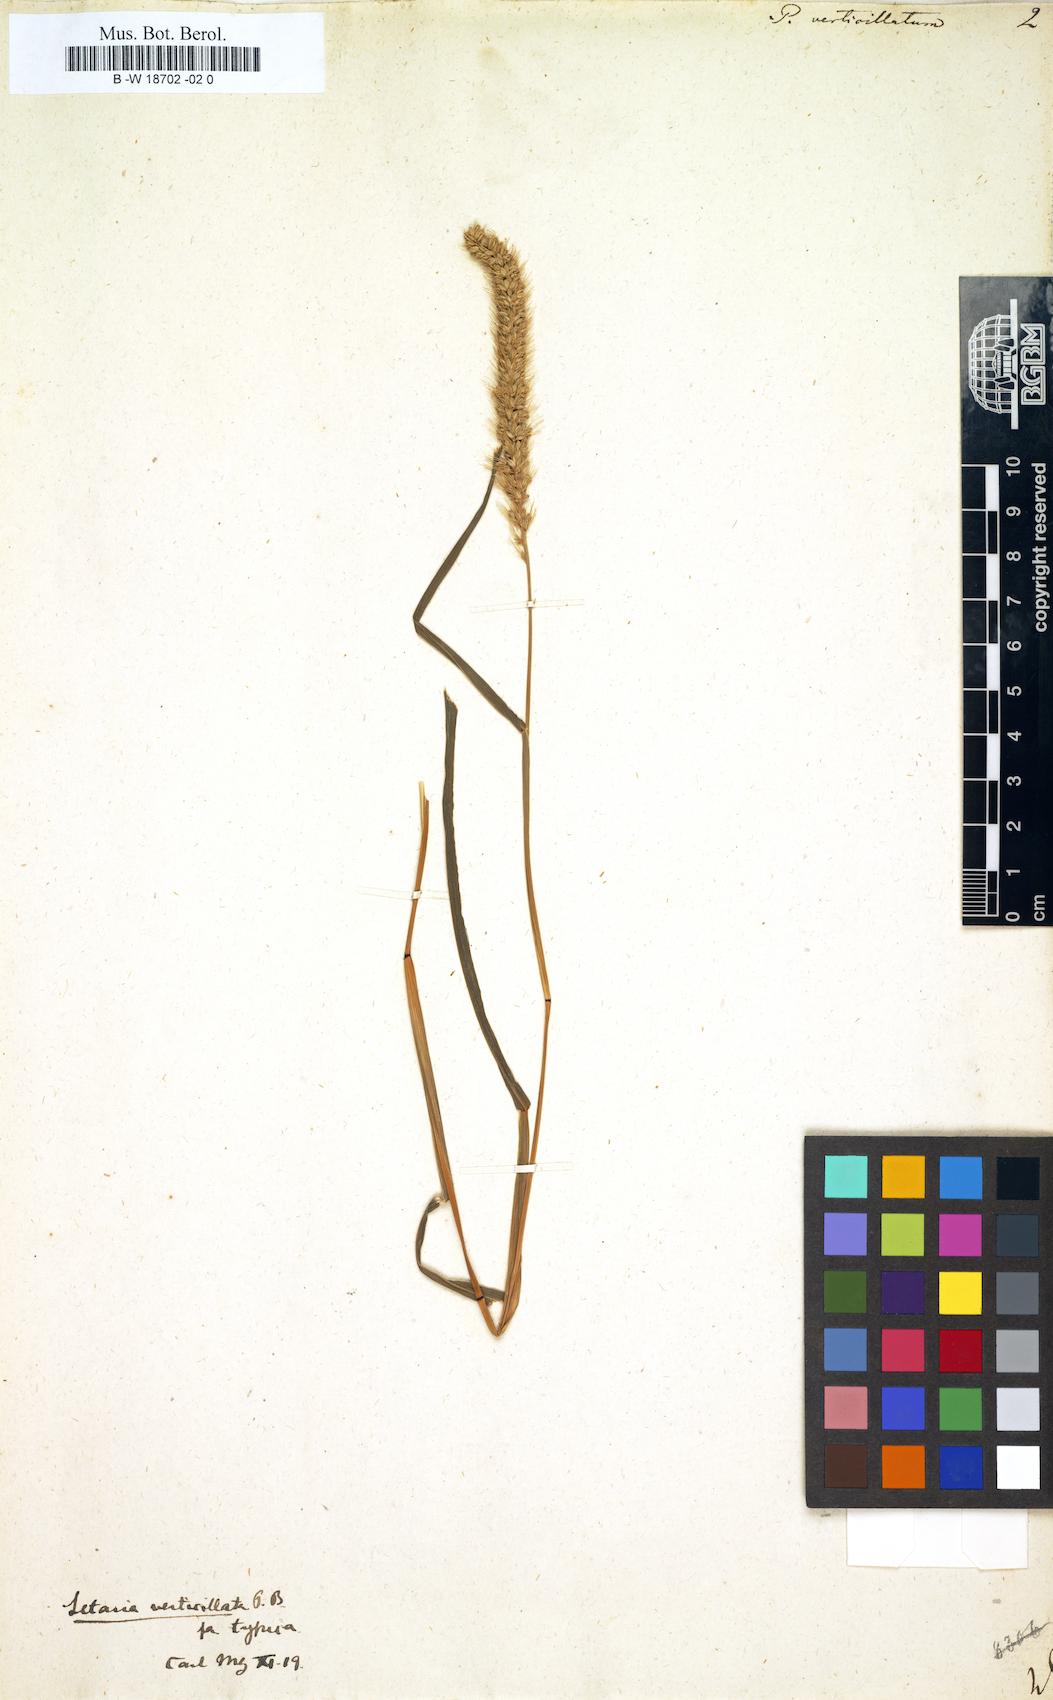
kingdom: Plantae
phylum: Tracheophyta
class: Liliopsida
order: Poales
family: Poaceae
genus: Panicum
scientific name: Panicum verticillatum
